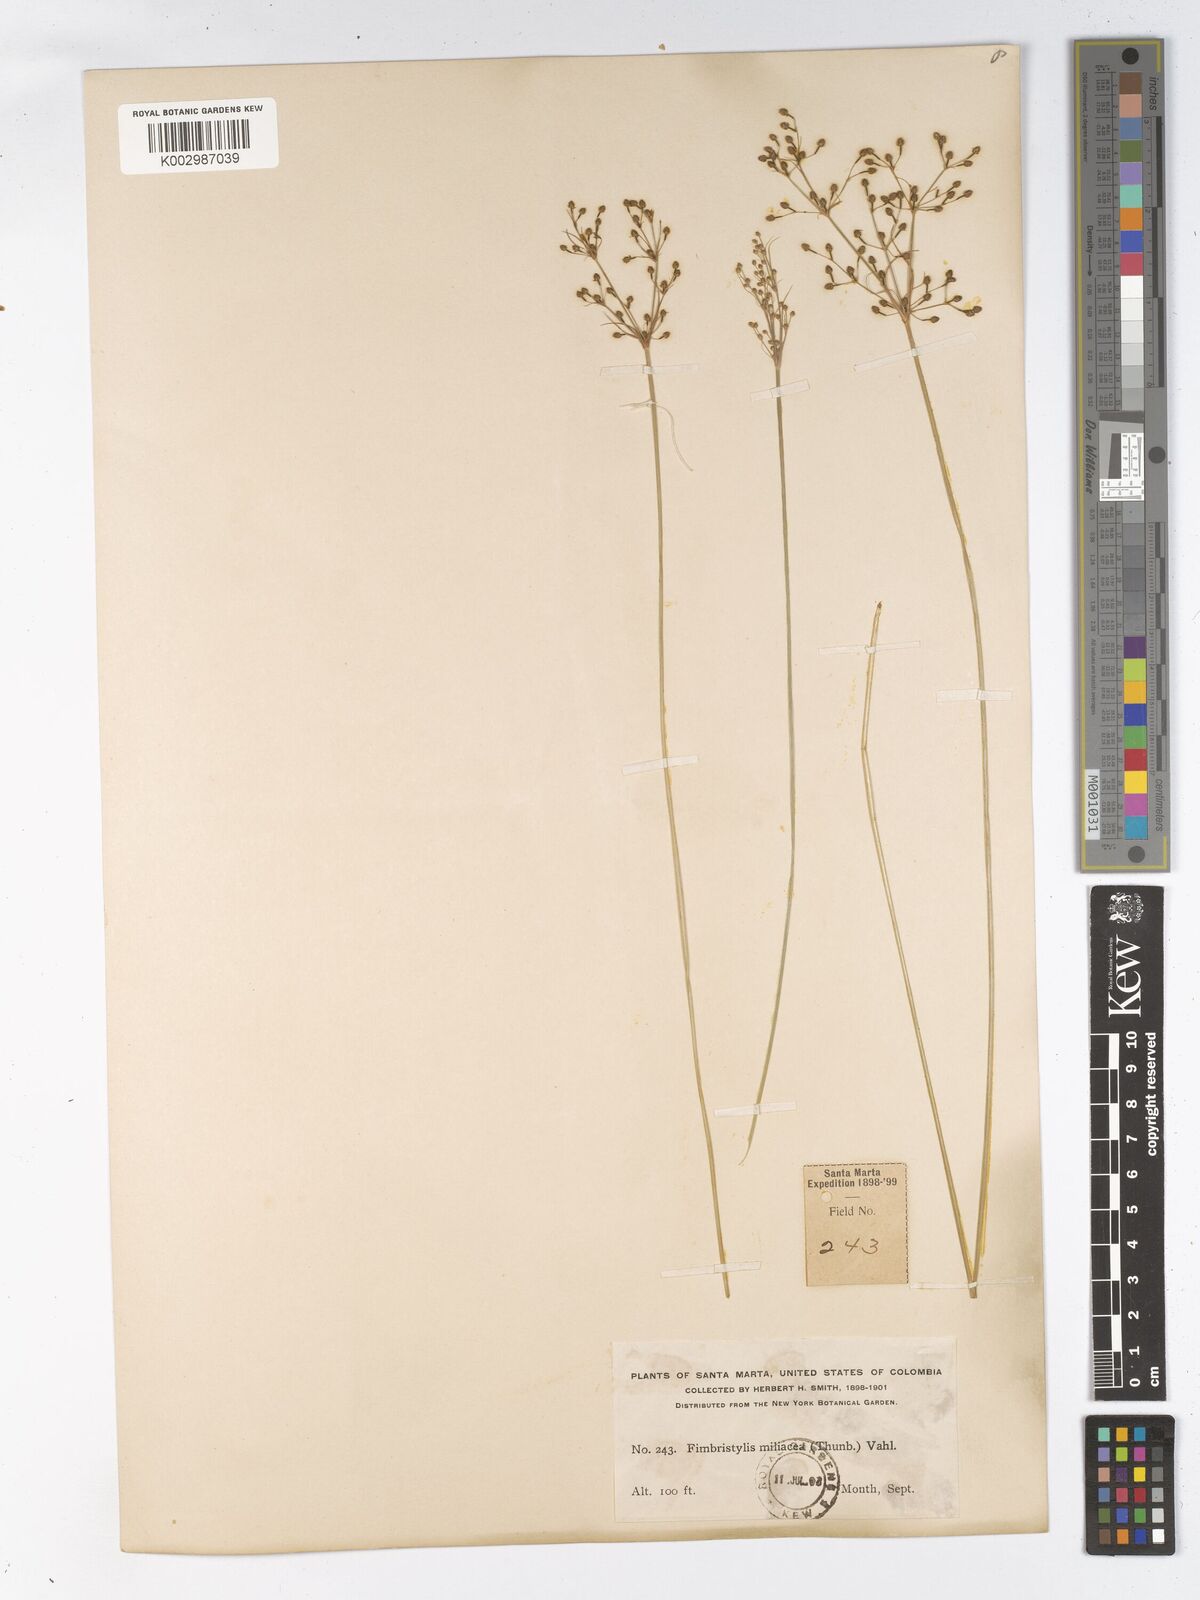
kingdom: Plantae
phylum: Tracheophyta
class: Liliopsida
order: Poales
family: Cyperaceae
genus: Fimbristylis
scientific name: Fimbristylis littoralis
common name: Fimbry
